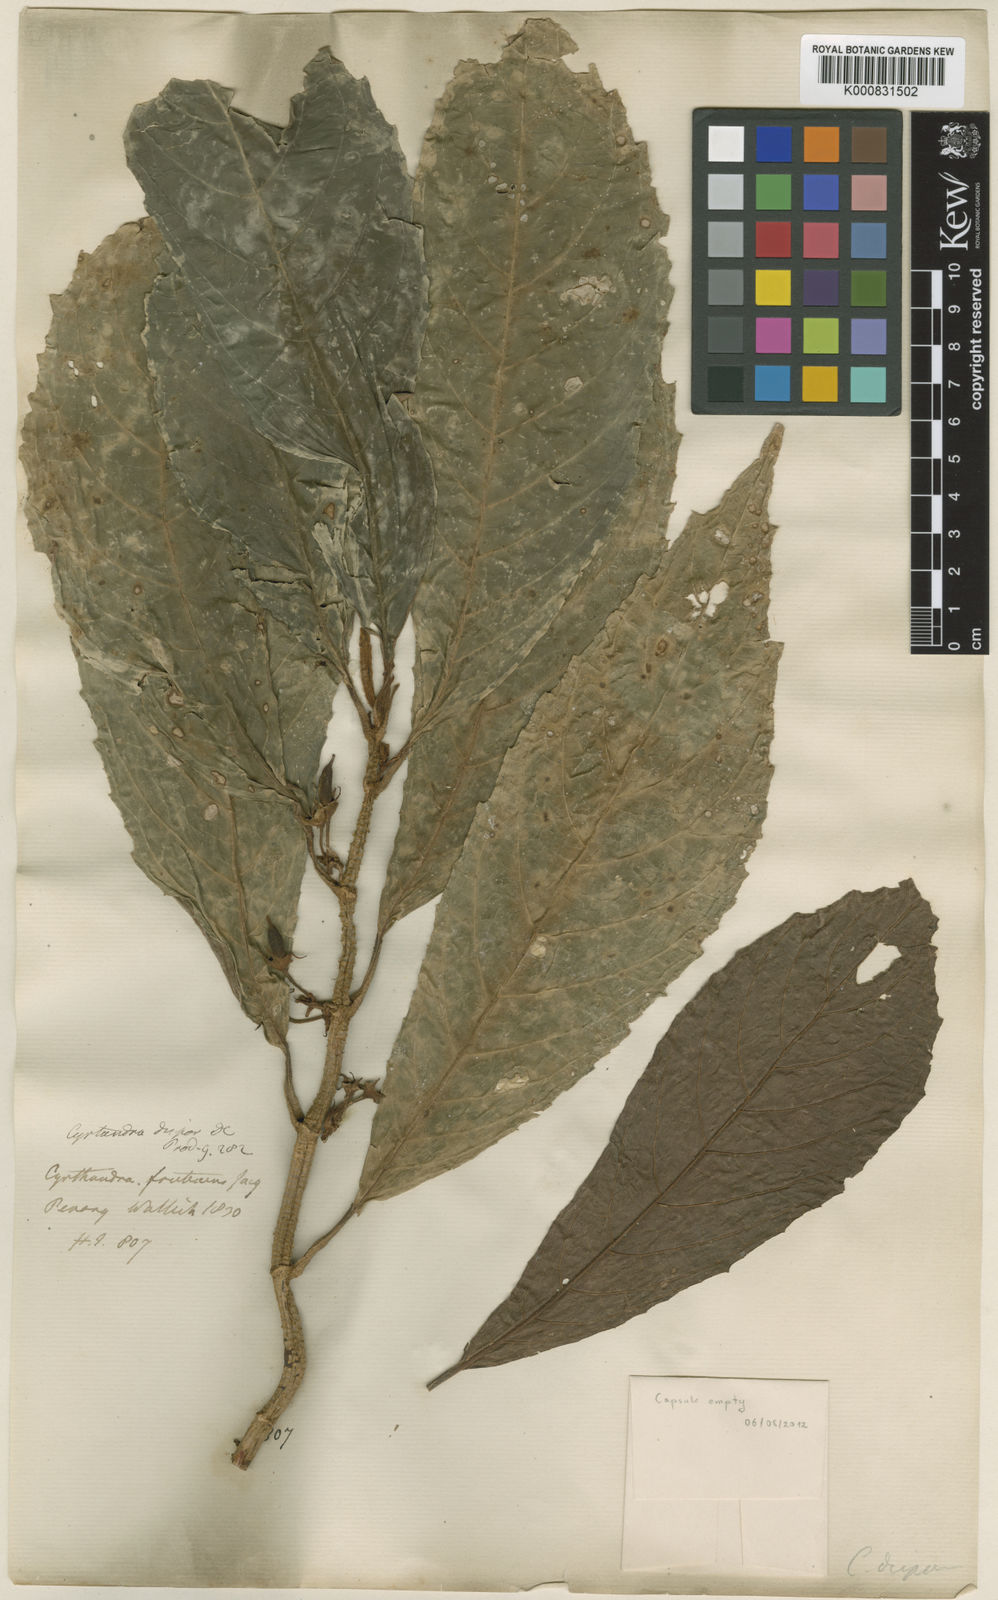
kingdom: Plantae
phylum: Tracheophyta
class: Magnoliopsida
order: Lamiales
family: Gesneriaceae
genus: Cyrtandra
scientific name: Cyrtandra dispar
